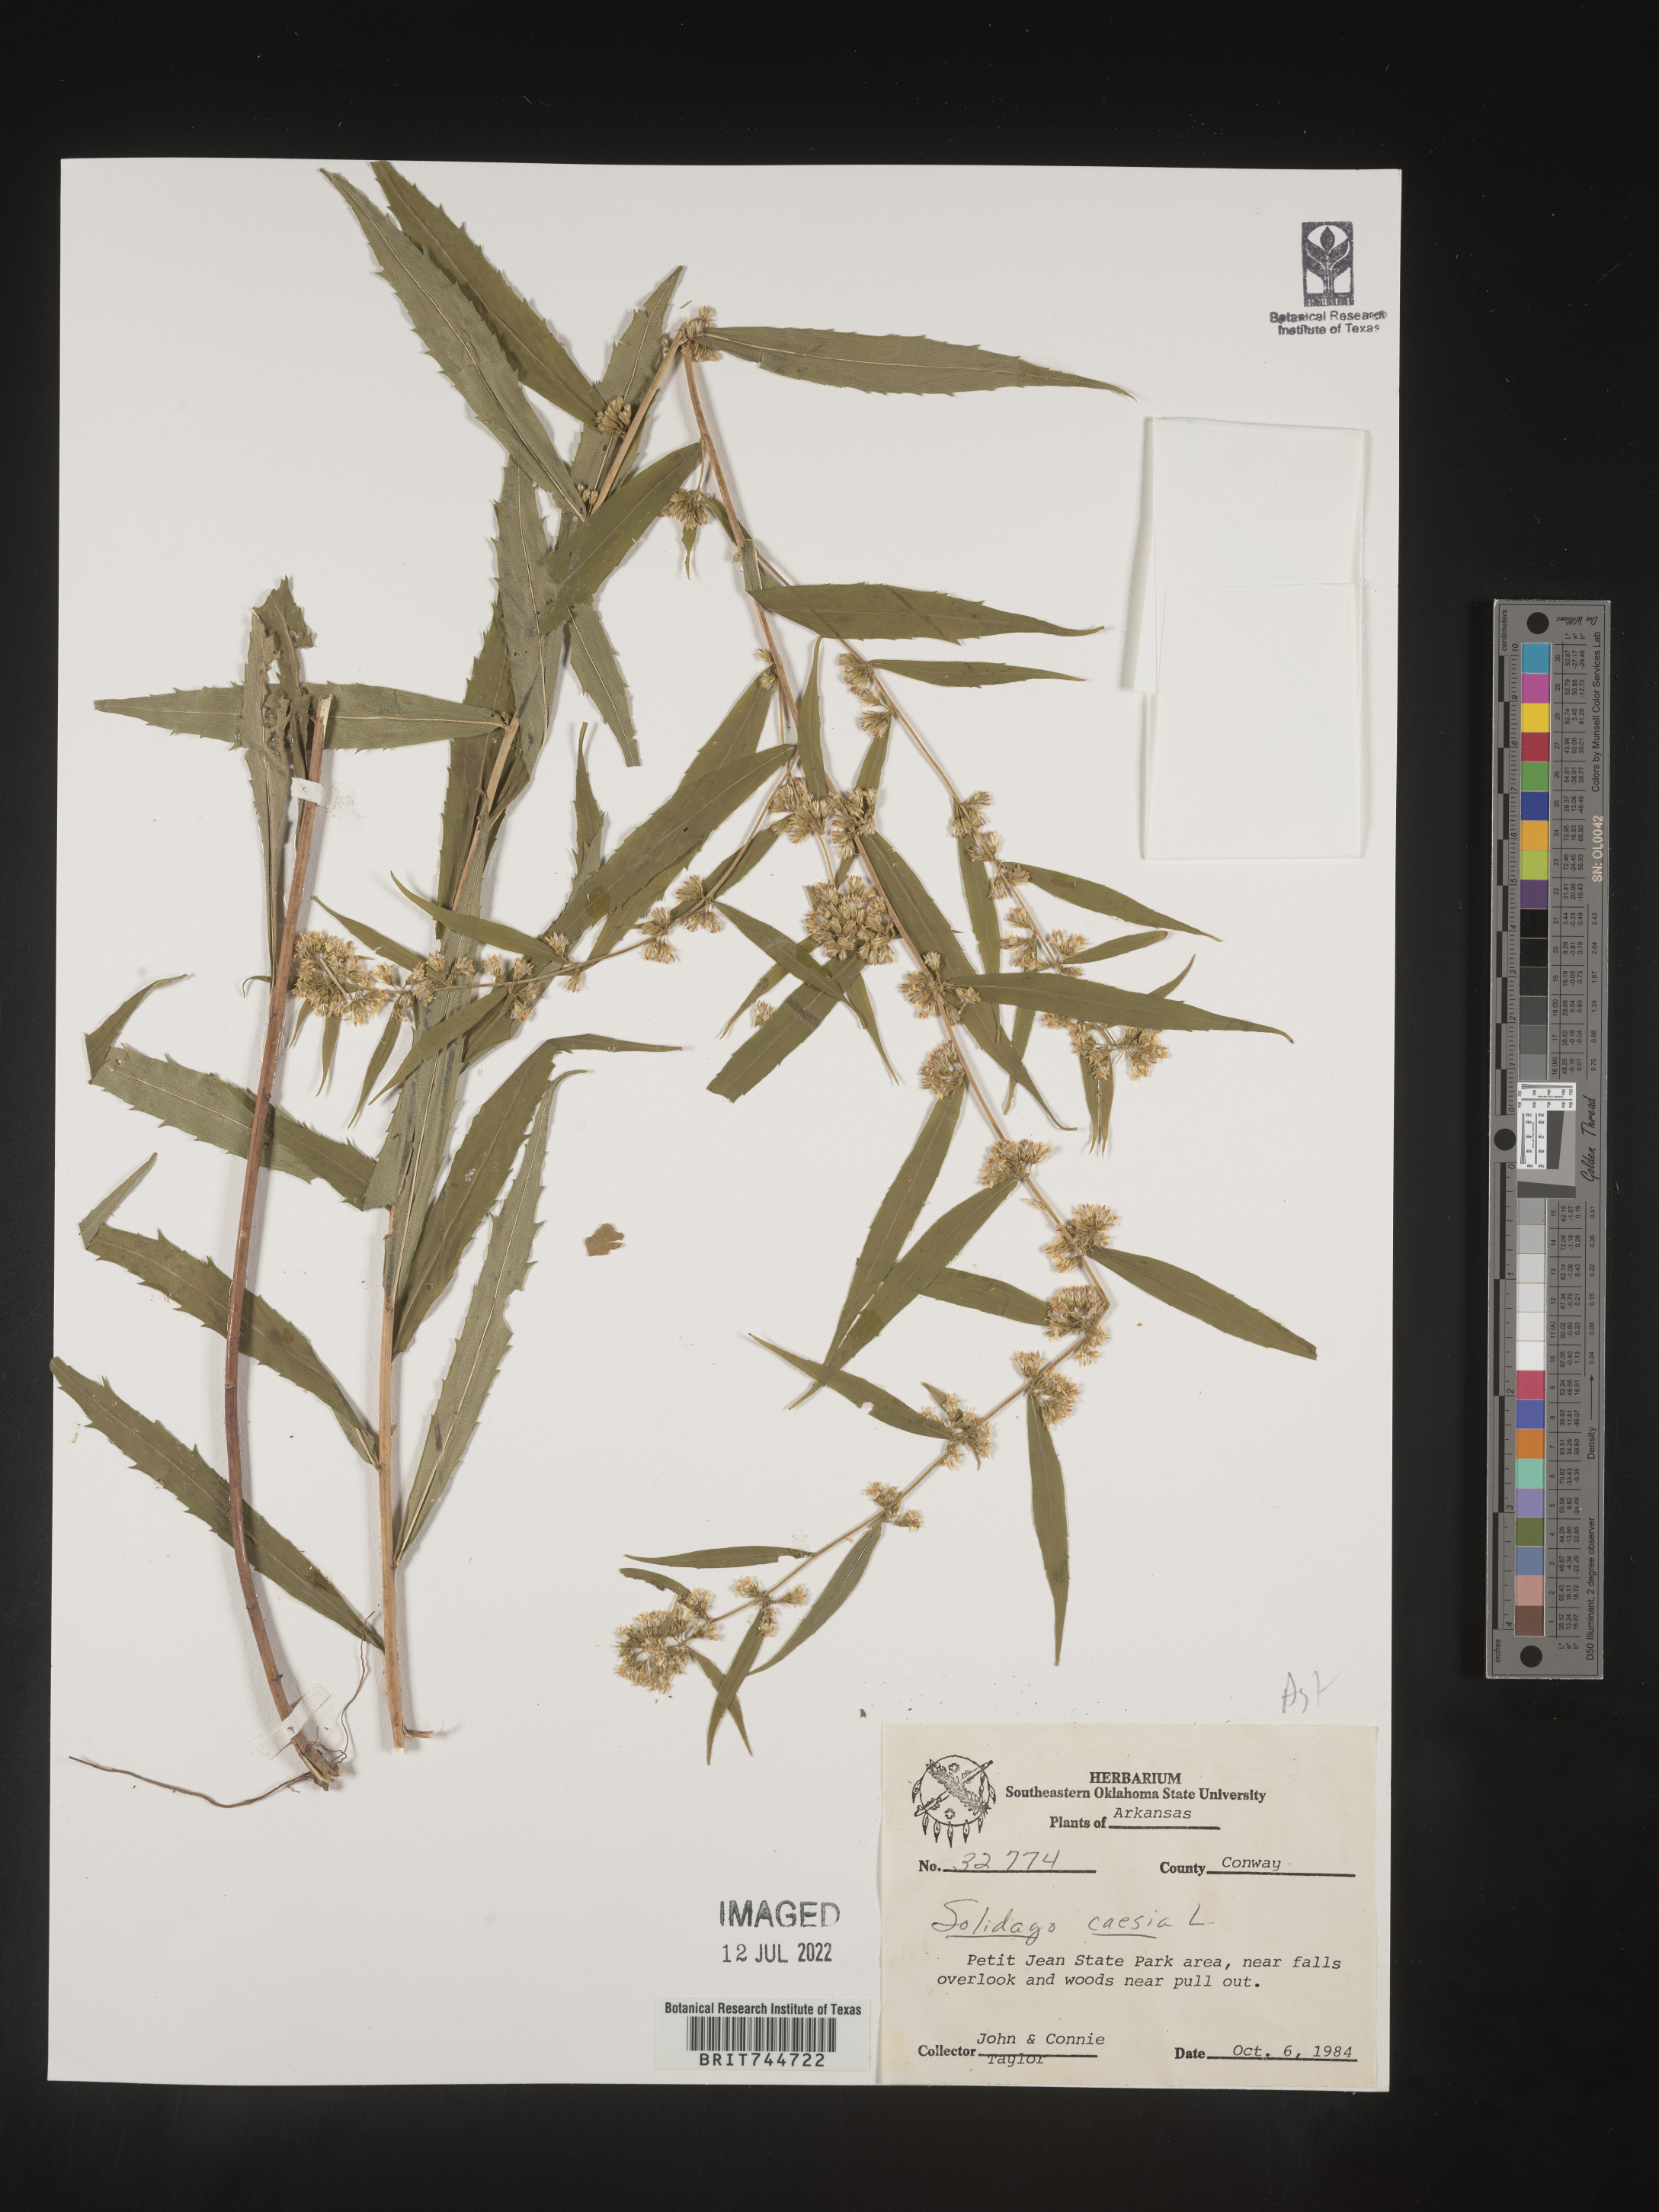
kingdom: Plantae
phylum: Tracheophyta
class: Magnoliopsida
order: Asterales
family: Asteraceae
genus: Solidago
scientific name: Solidago caesia
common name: Woodland goldenrod
